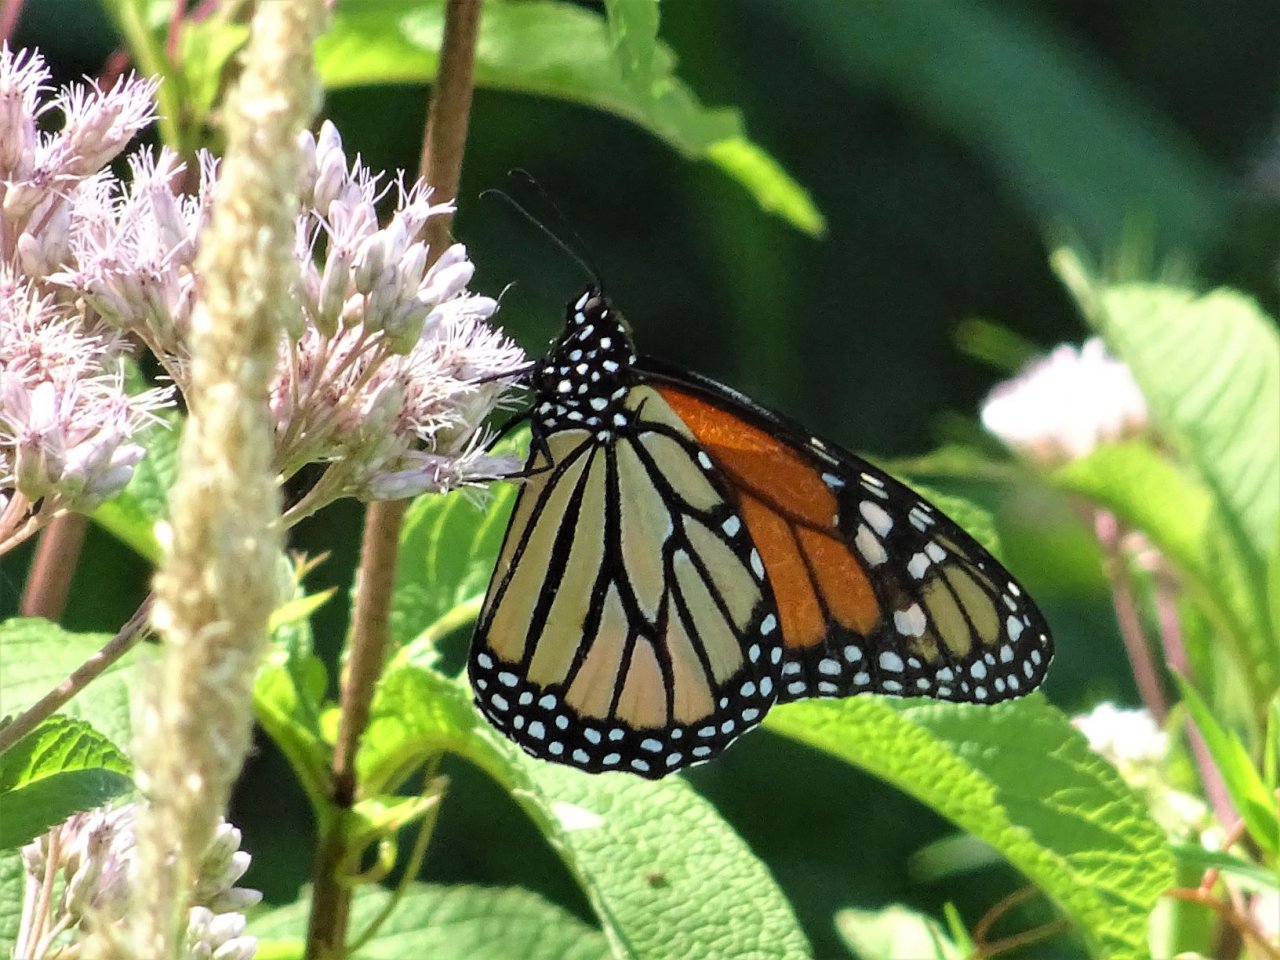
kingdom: Animalia
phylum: Arthropoda
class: Insecta
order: Lepidoptera
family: Nymphalidae
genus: Danaus
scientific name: Danaus plexippus
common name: Monarch
